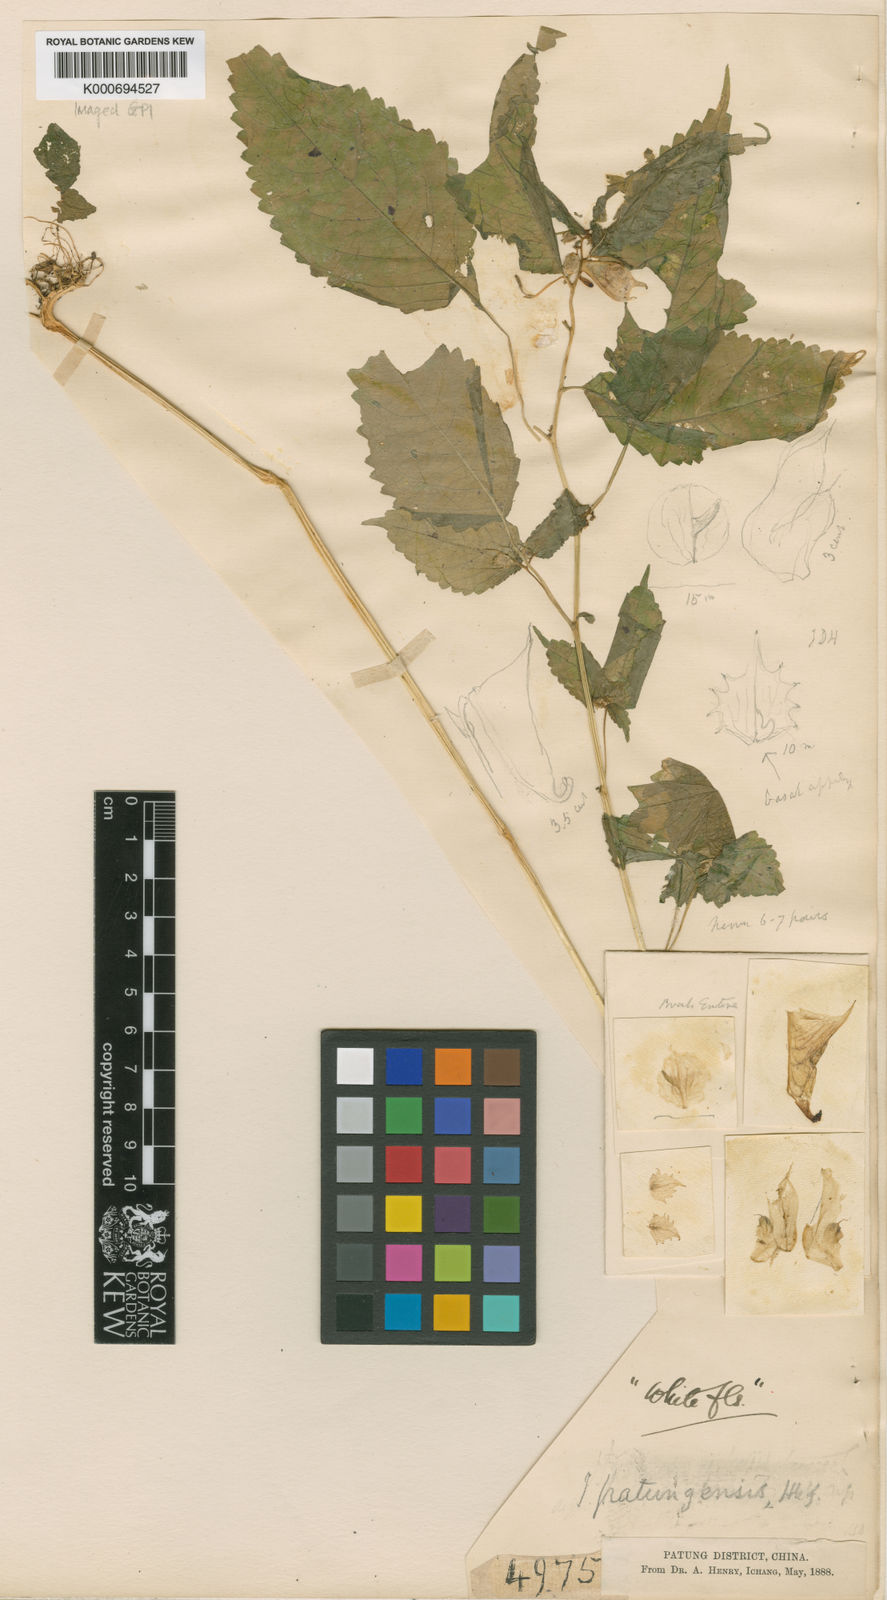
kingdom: Plantae
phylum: Tracheophyta
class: Magnoliopsida
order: Ericales
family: Balsaminaceae
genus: Impatiens
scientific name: Impatiens
